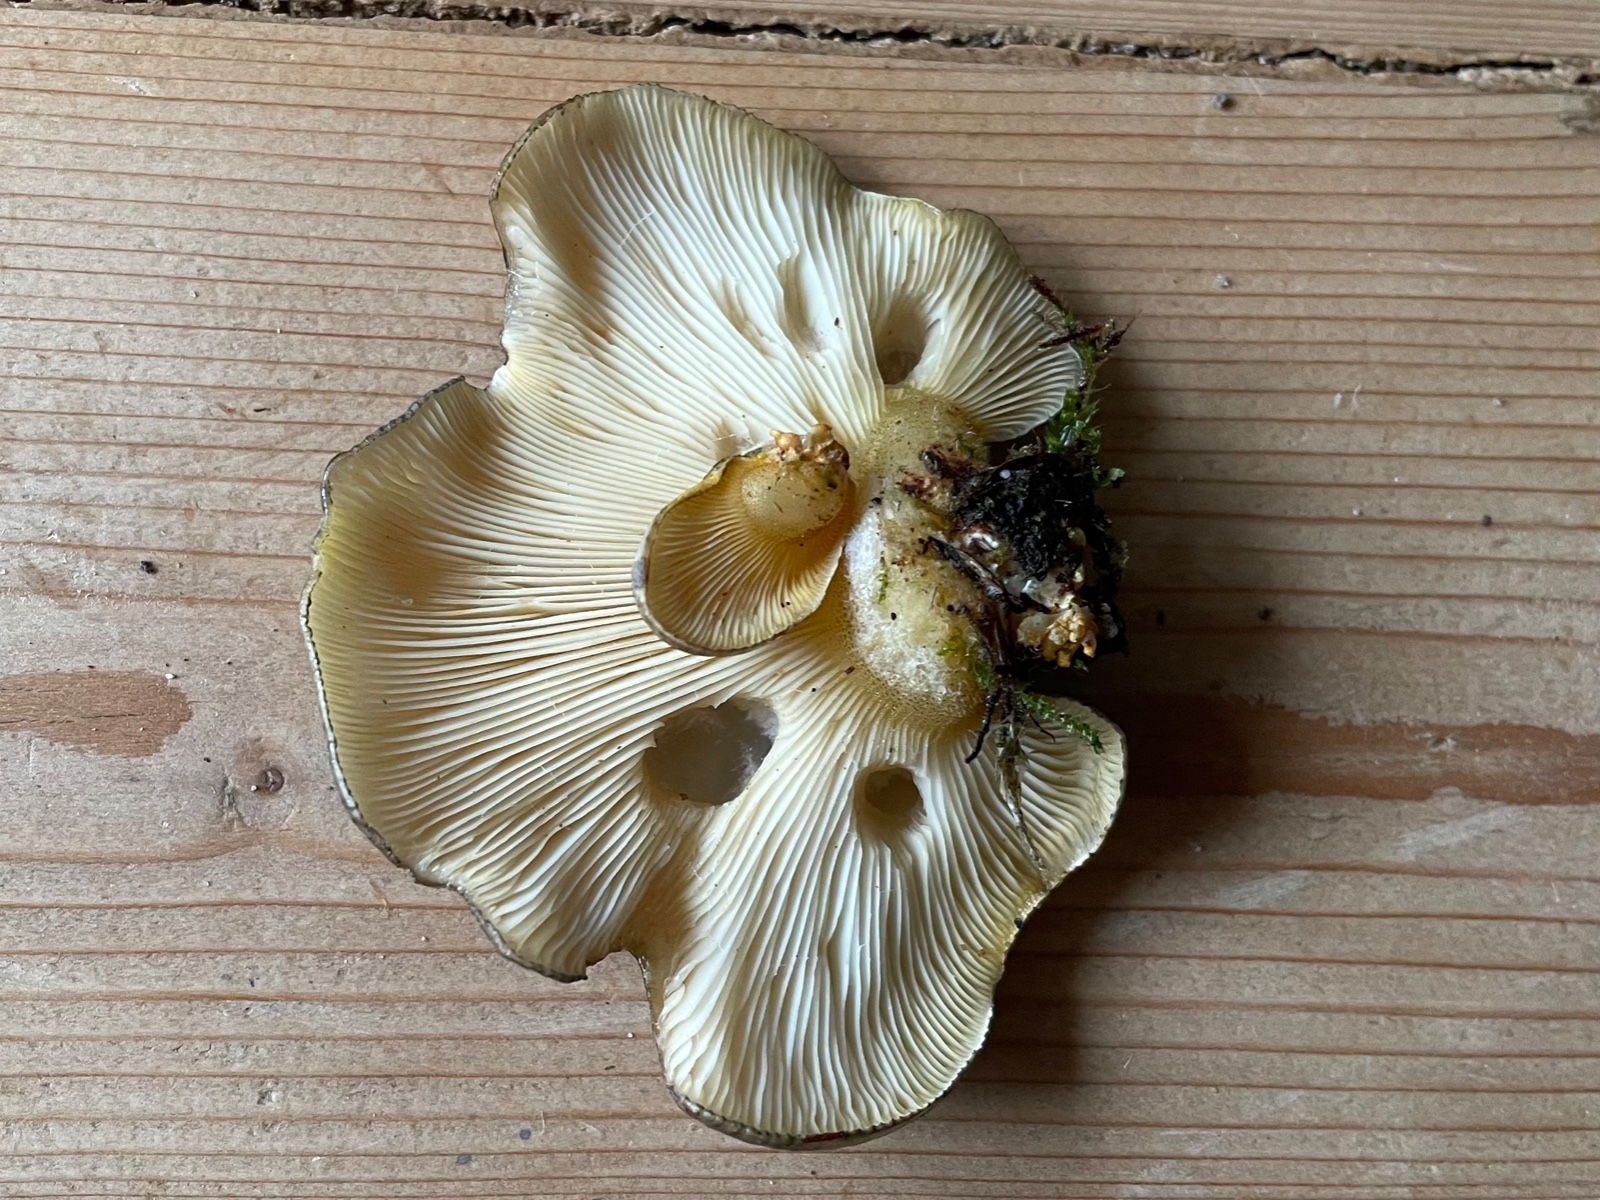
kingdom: Fungi
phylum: Basidiomycota
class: Agaricomycetes
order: Agaricales
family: Sarcomyxaceae
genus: Sarcomyxa
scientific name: Sarcomyxa serotina
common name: gummihat
